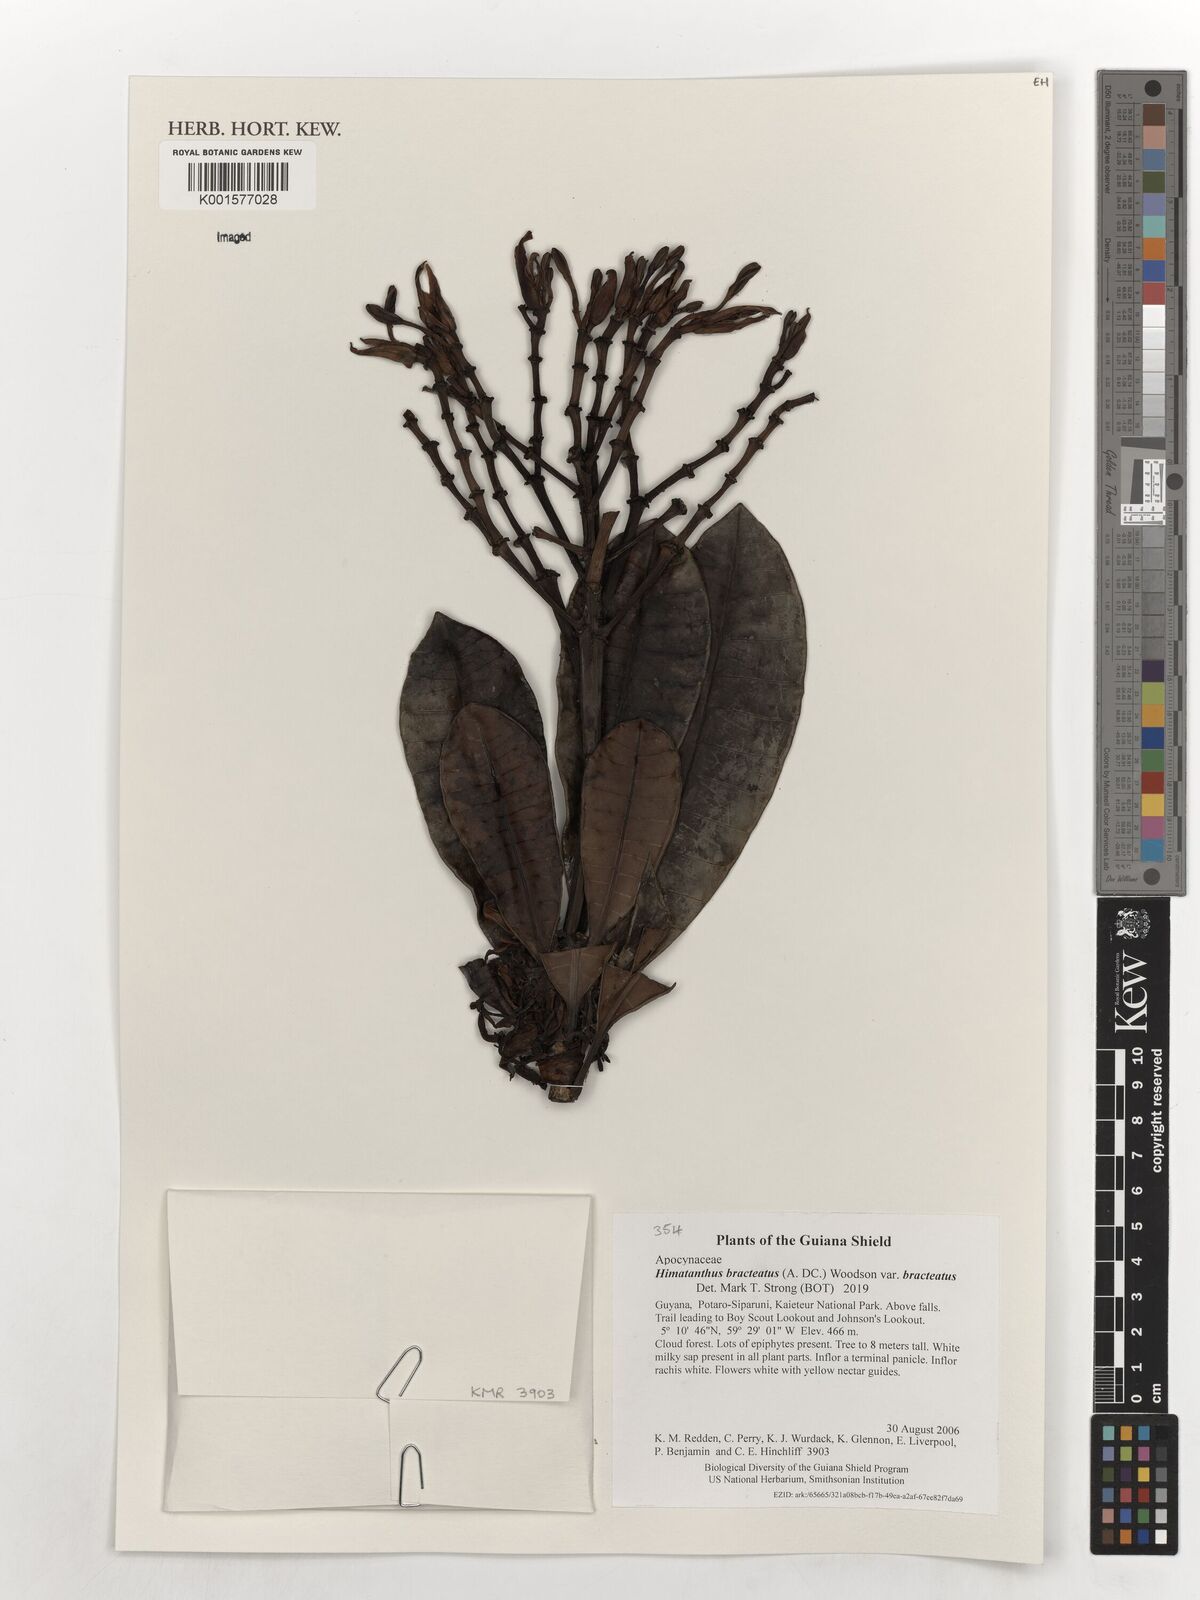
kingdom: Plantae
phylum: Tracheophyta
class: Magnoliopsida
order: Gentianales
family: Apocynaceae
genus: Himatanthus
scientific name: Himatanthus bracteatus
